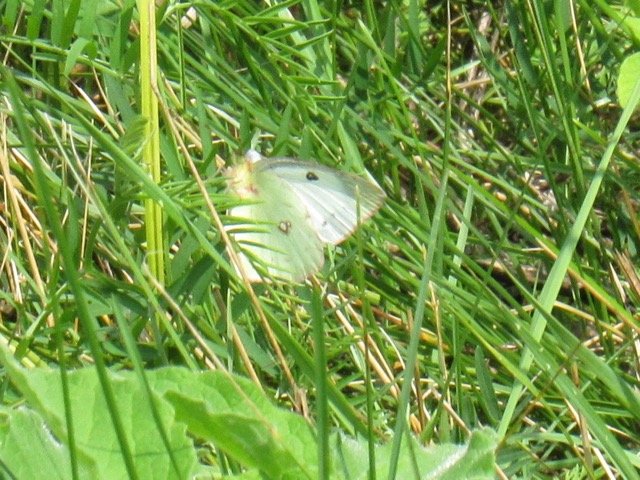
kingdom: Animalia
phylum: Arthropoda
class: Insecta
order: Lepidoptera
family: Pieridae
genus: Colias
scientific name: Colias philodice
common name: Clouded Sulphur
